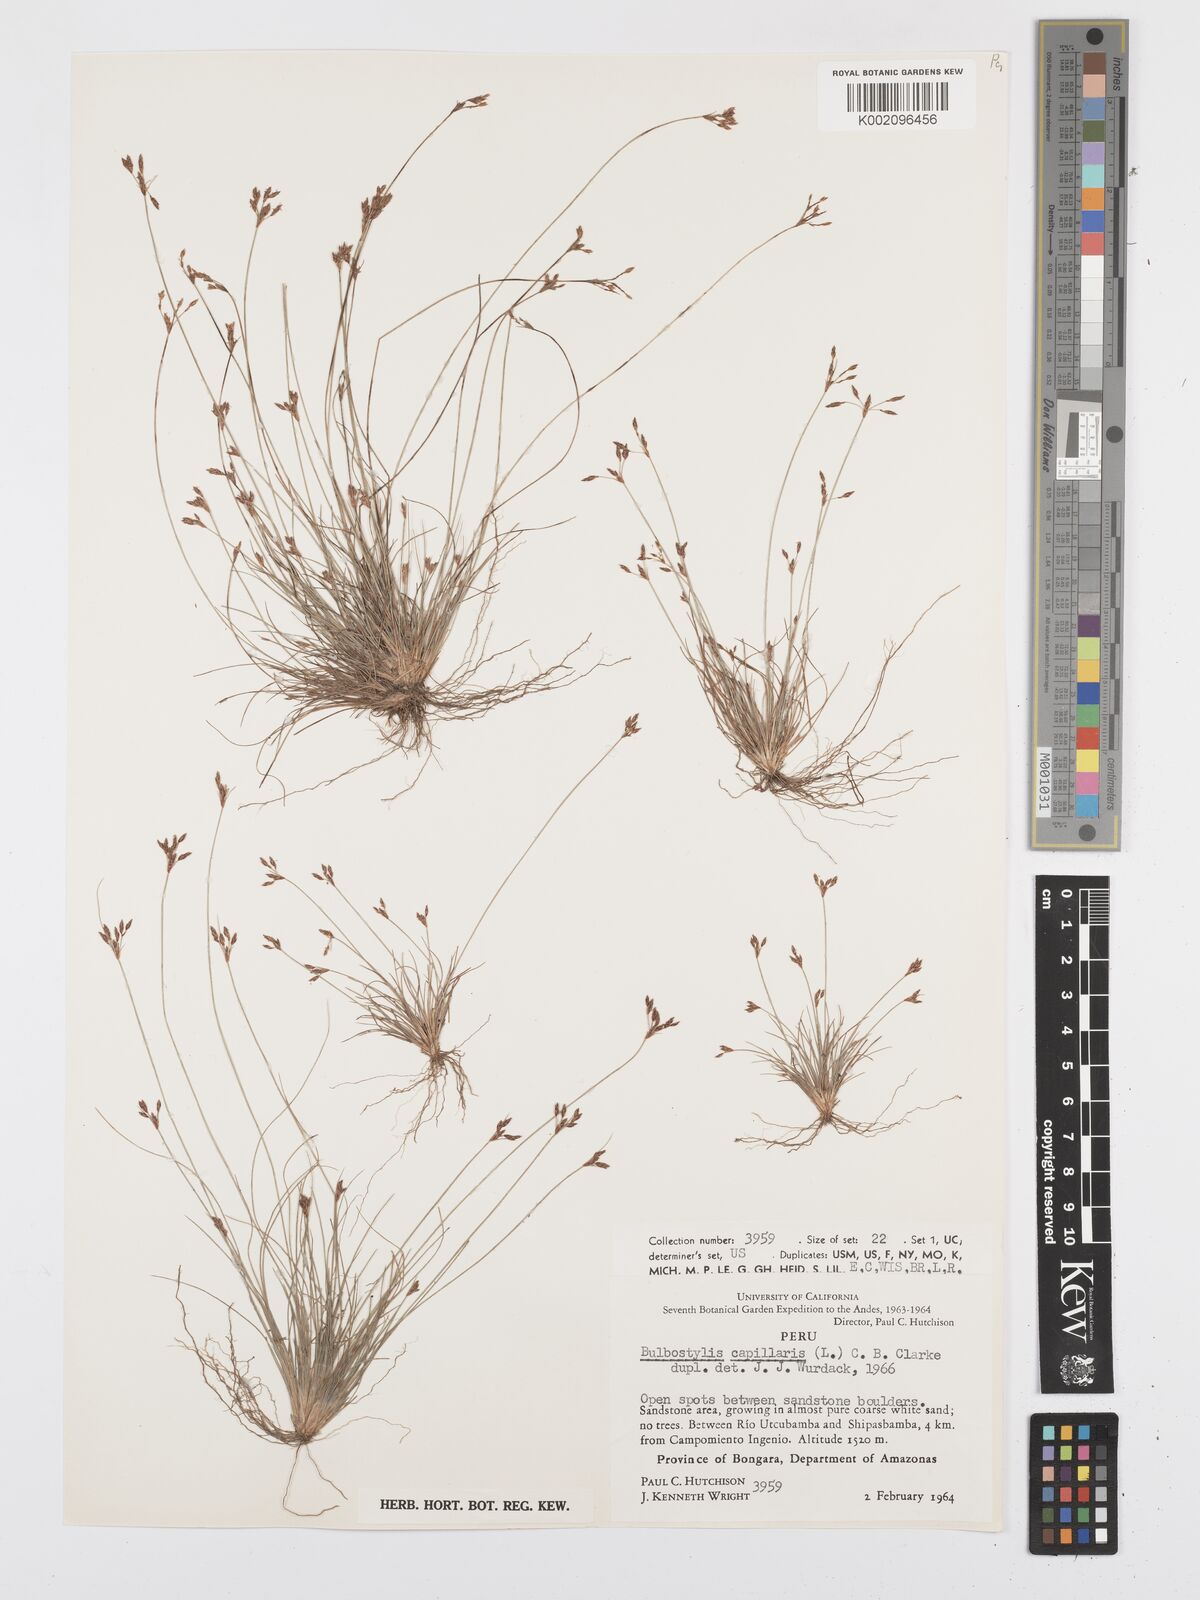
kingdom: Plantae
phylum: Tracheophyta
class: Liliopsida
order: Poales
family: Cyperaceae
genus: Bulbostylis
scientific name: Bulbostylis capillaris
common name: Densetuft hairsedge
